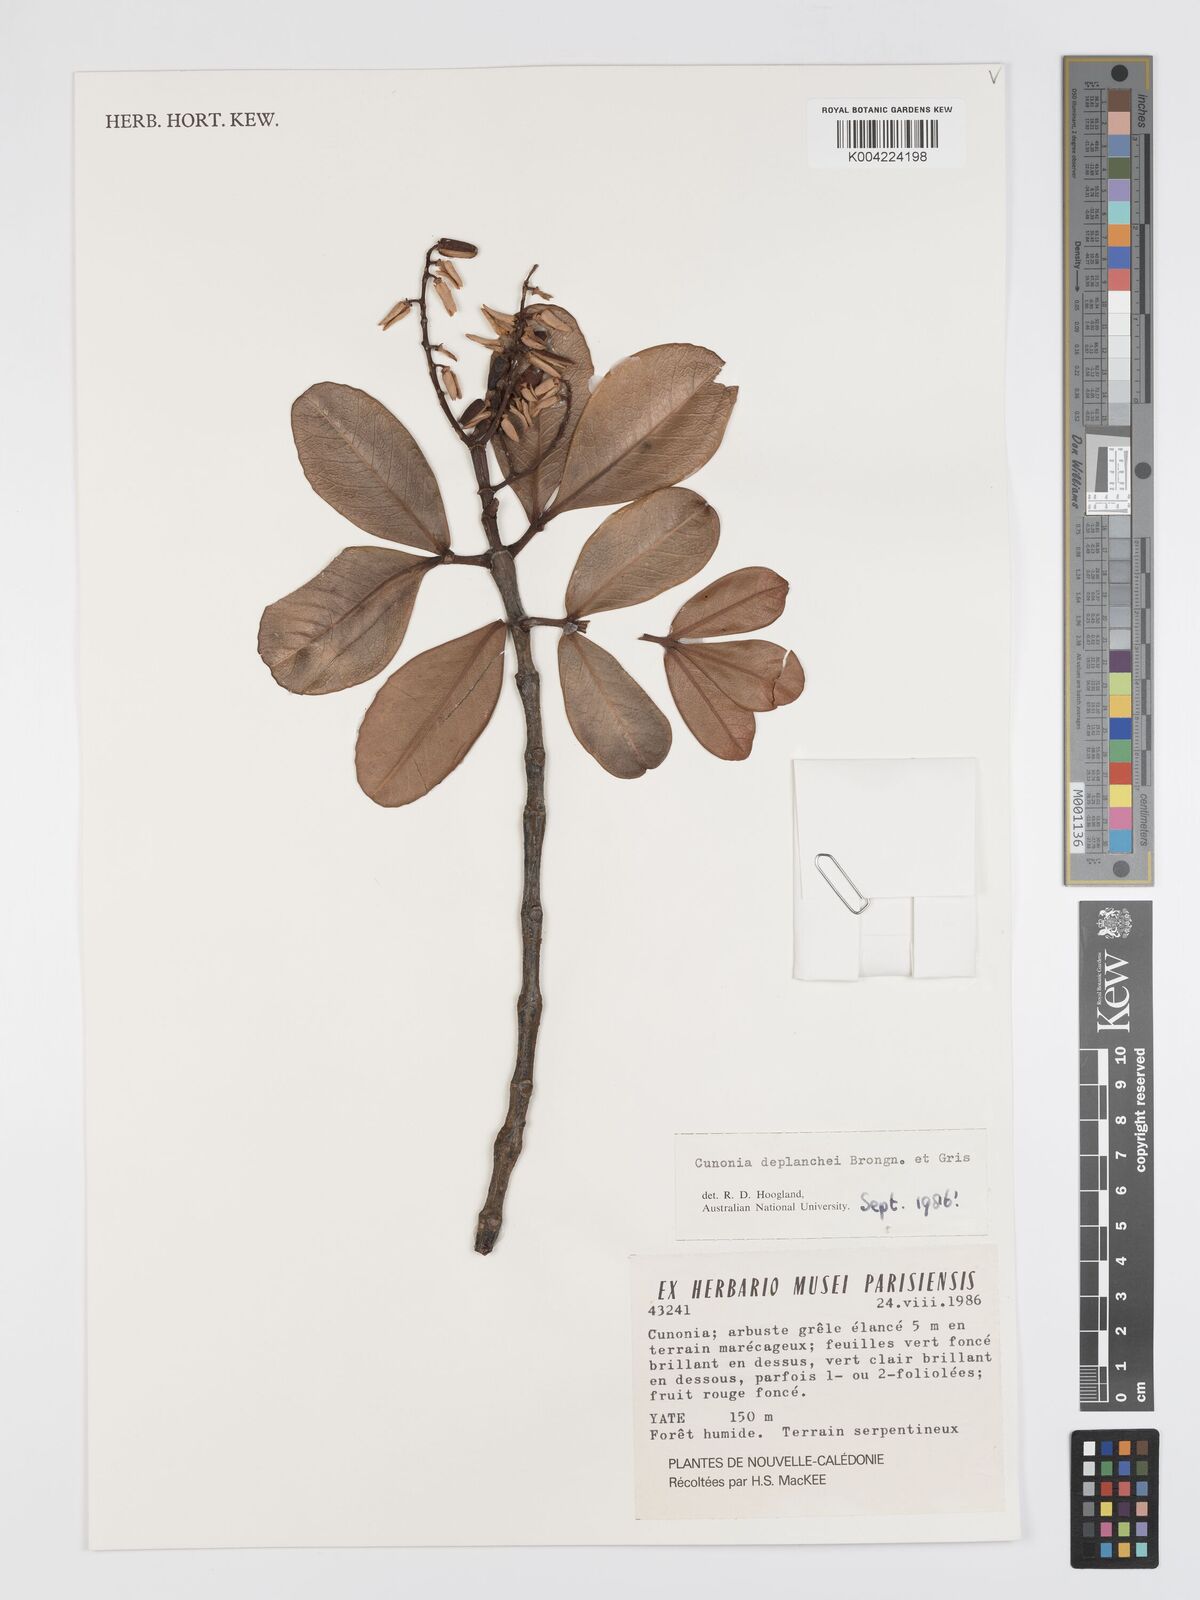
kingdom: Plantae
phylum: Tracheophyta
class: Magnoliopsida
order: Oxalidales
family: Cunoniaceae
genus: Cunonia
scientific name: Cunonia deplanchei
